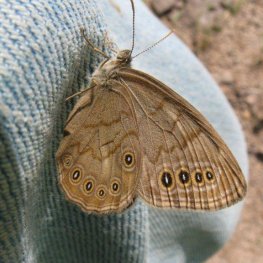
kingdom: Animalia
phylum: Arthropoda
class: Insecta
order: Lepidoptera
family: Nymphalidae
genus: Lethe
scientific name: Lethe eurydice
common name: Eyed Brown
